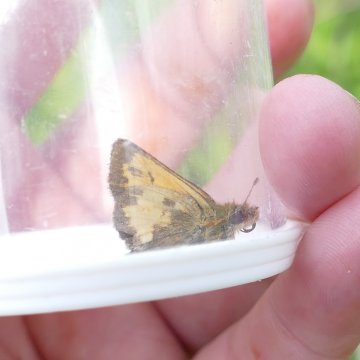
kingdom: Animalia
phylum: Arthropoda
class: Insecta
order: Lepidoptera
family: Hesperiidae
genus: Lon
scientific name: Lon hobomok
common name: Hobomok Skipper
